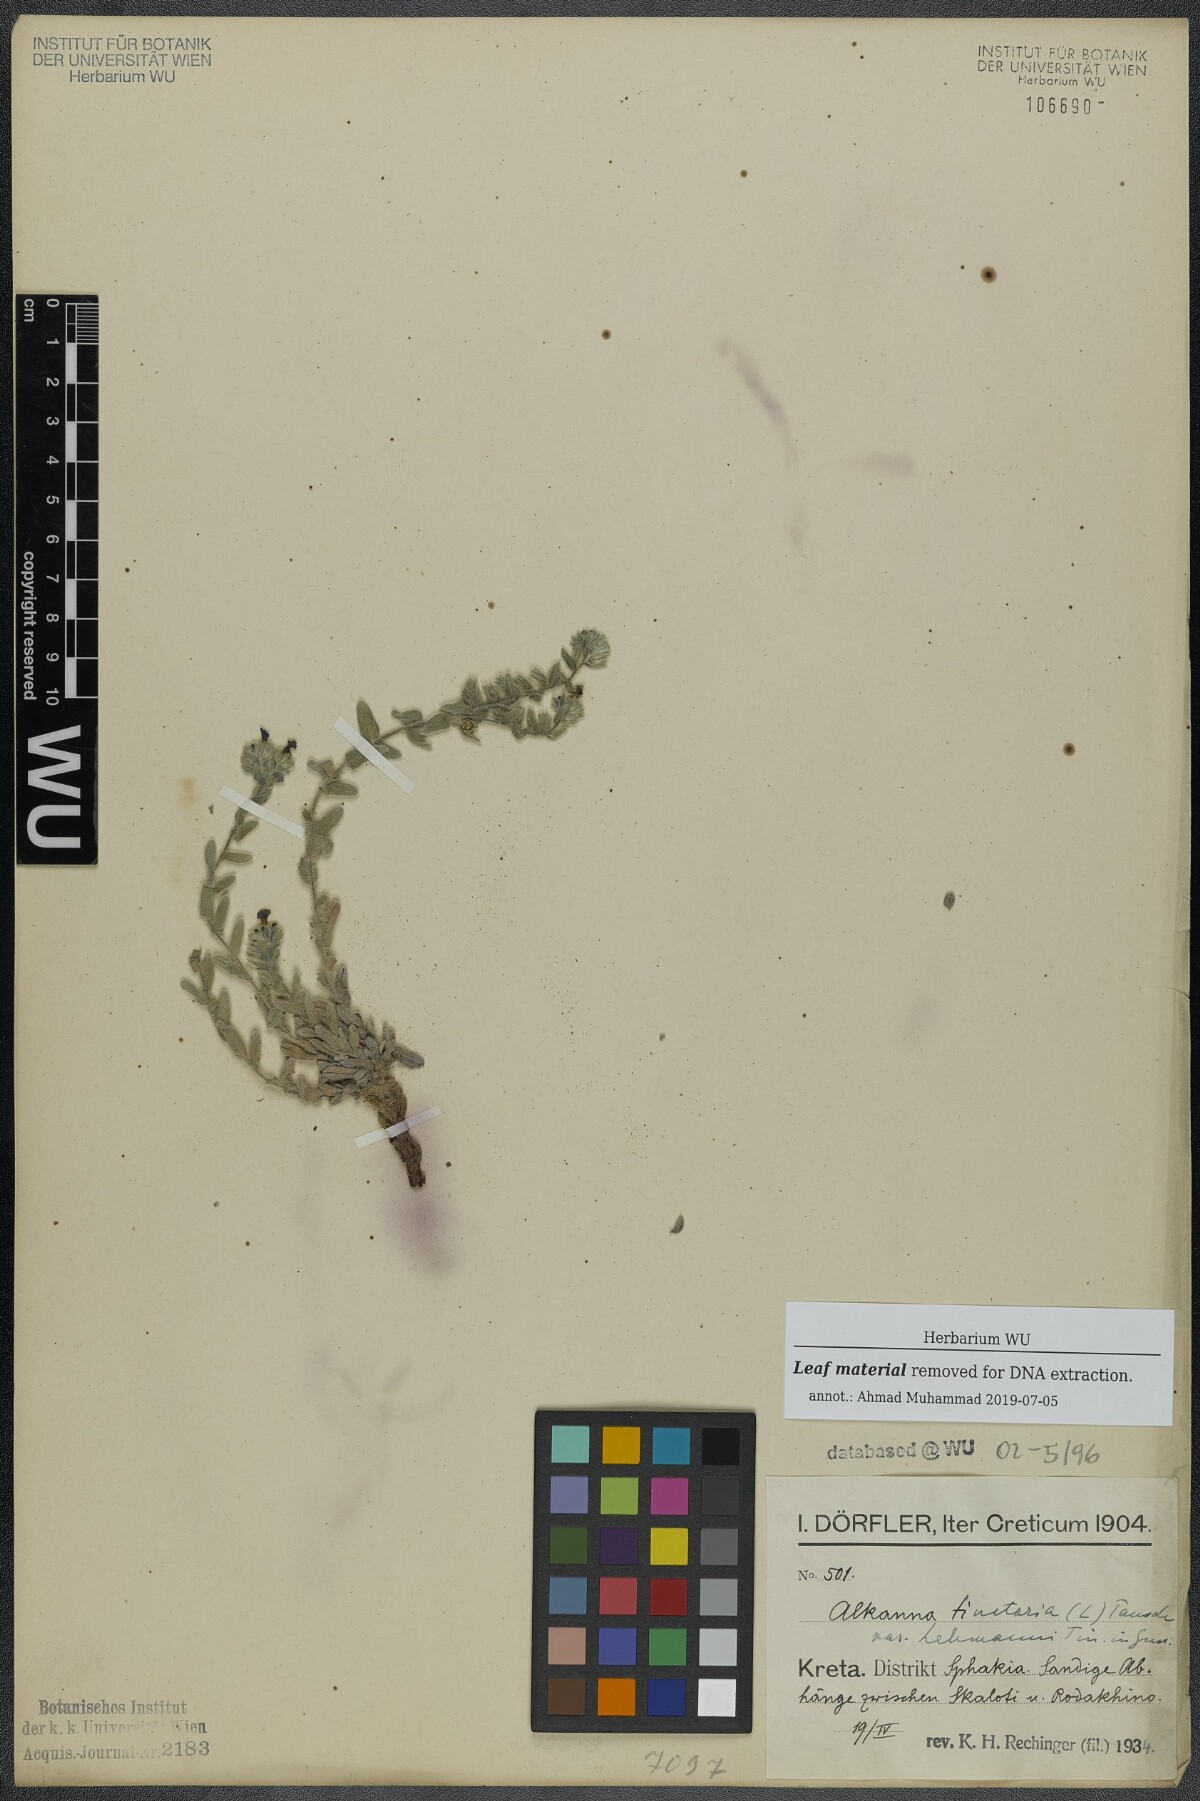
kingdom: Plantae
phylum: Tracheophyta
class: Magnoliopsida
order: Boraginales
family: Boraginaceae
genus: Alkanna
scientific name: Alkanna tinctoria
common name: Dyer's-alkanet
